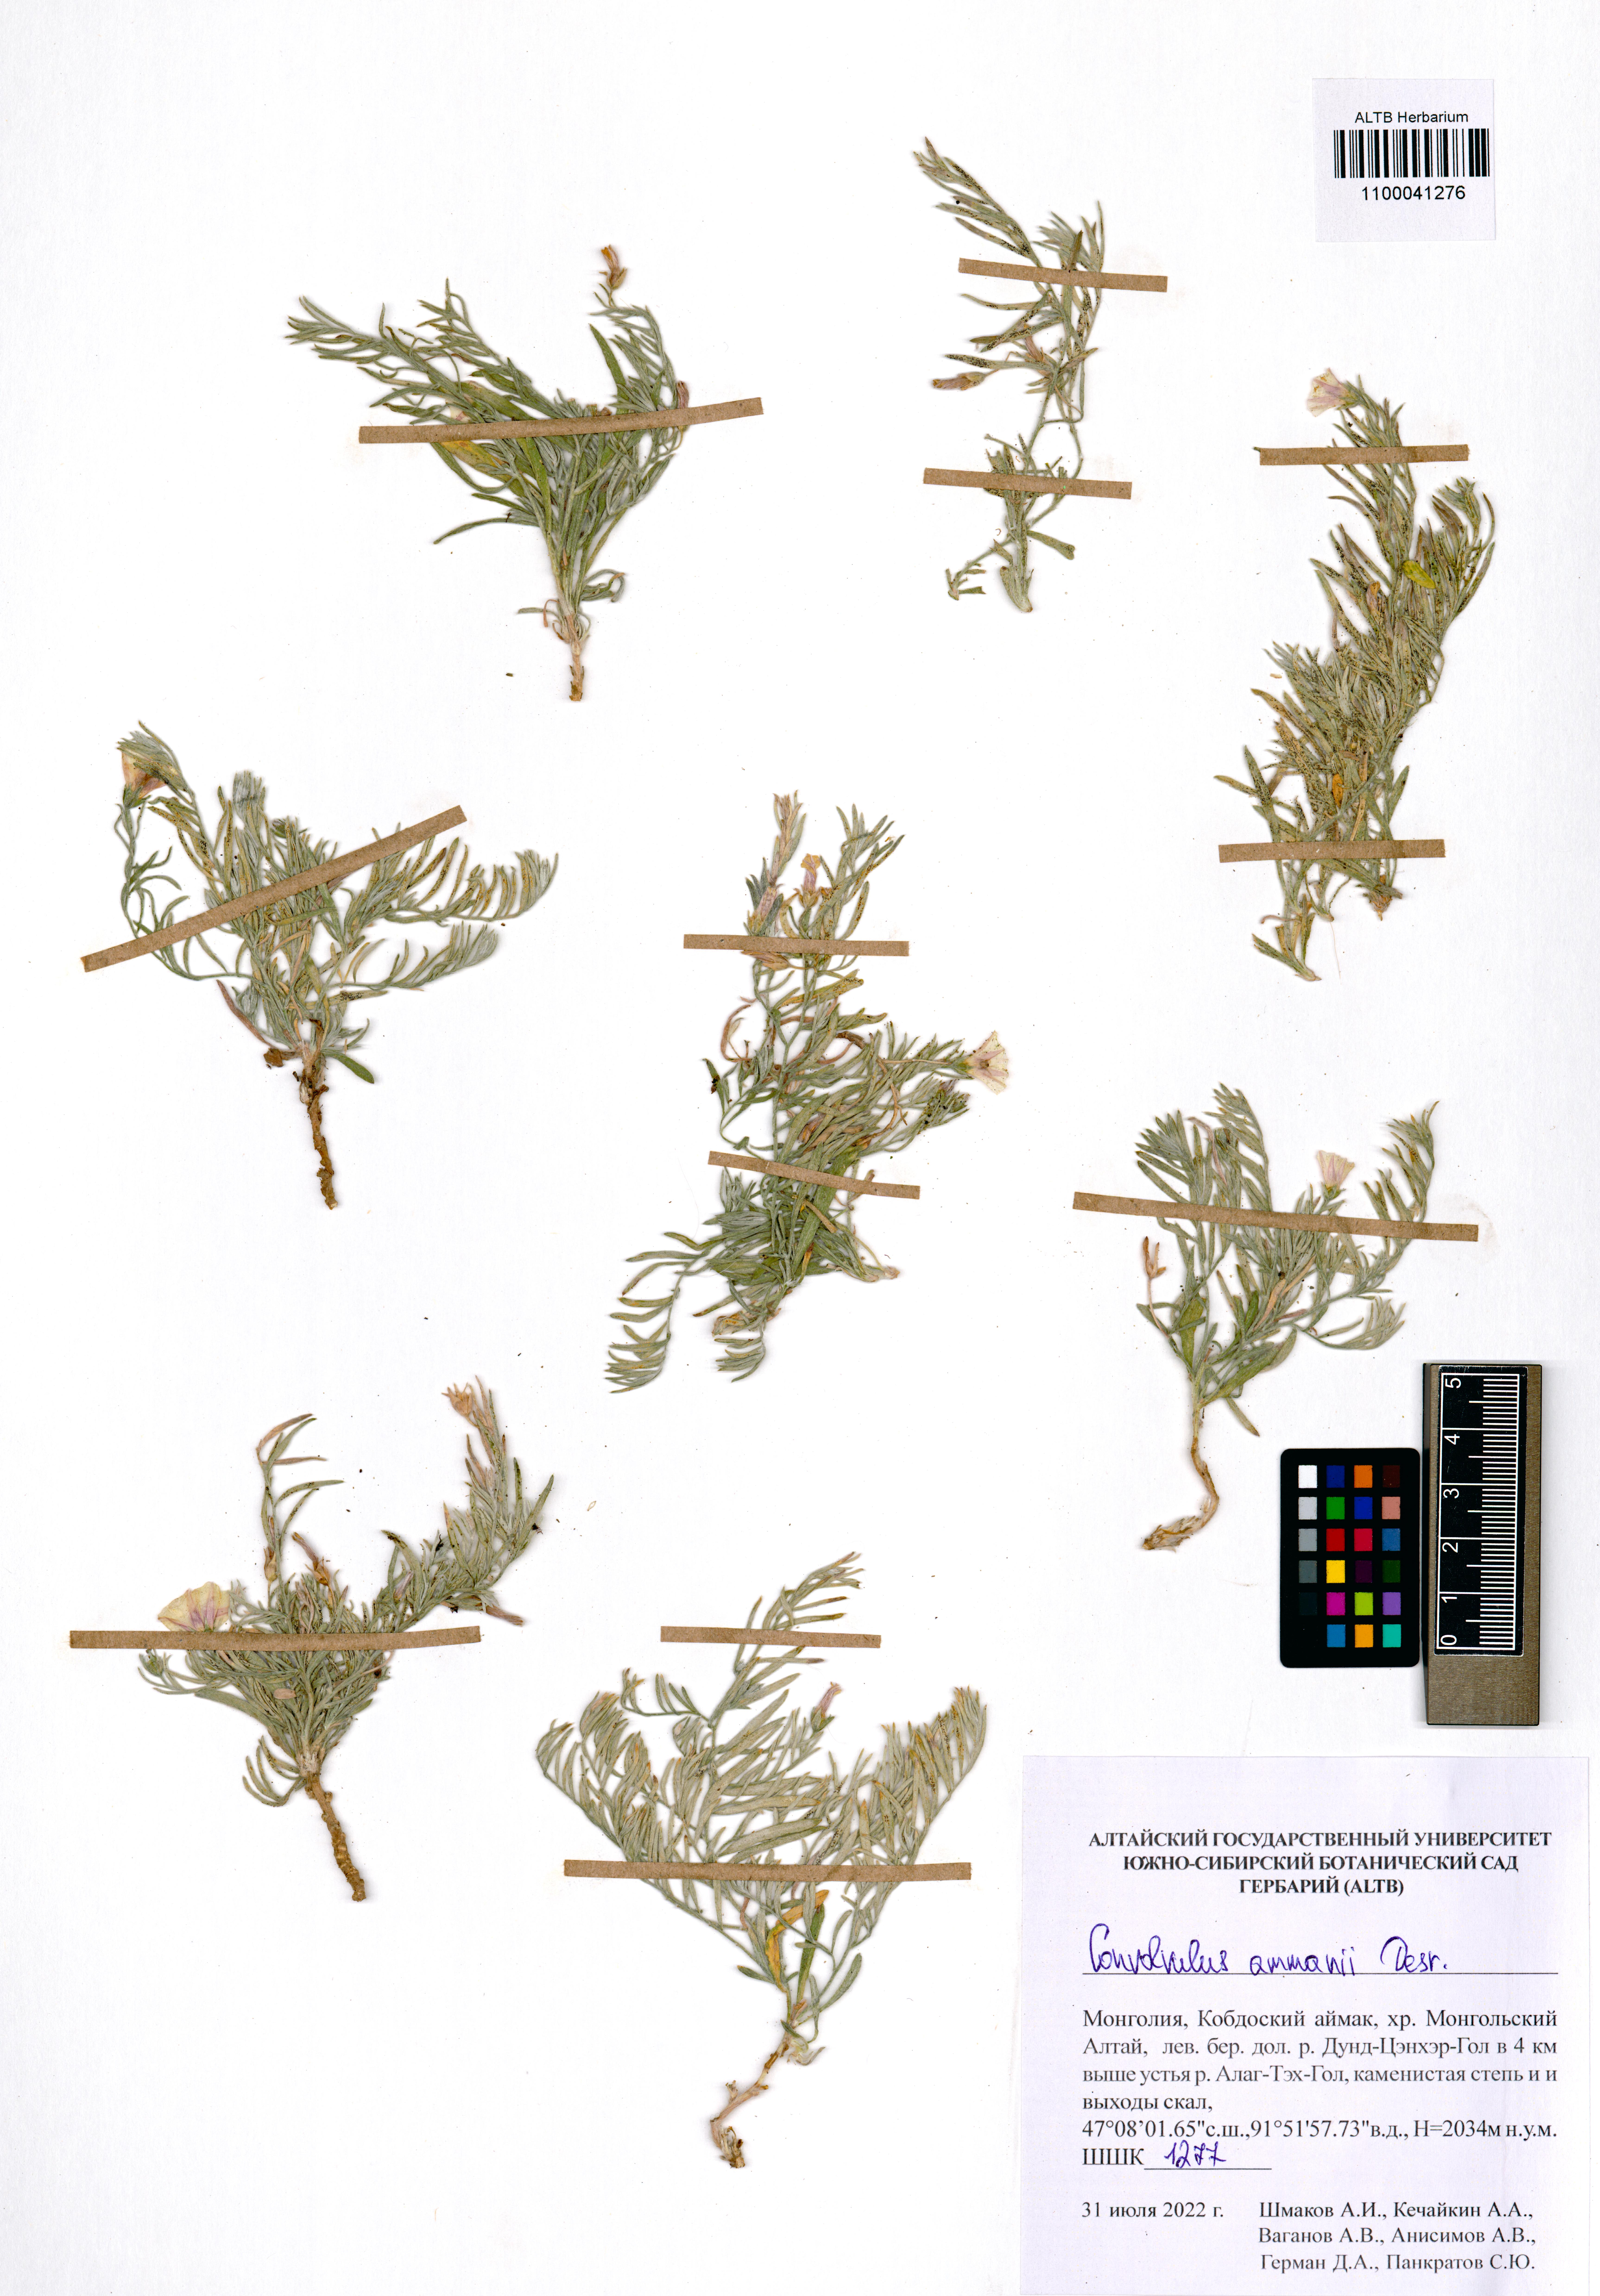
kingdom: Plantae
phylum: Tracheophyta
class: Magnoliopsida
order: Solanales
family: Convolvulaceae
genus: Convolvulus
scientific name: Convolvulus ammannii
